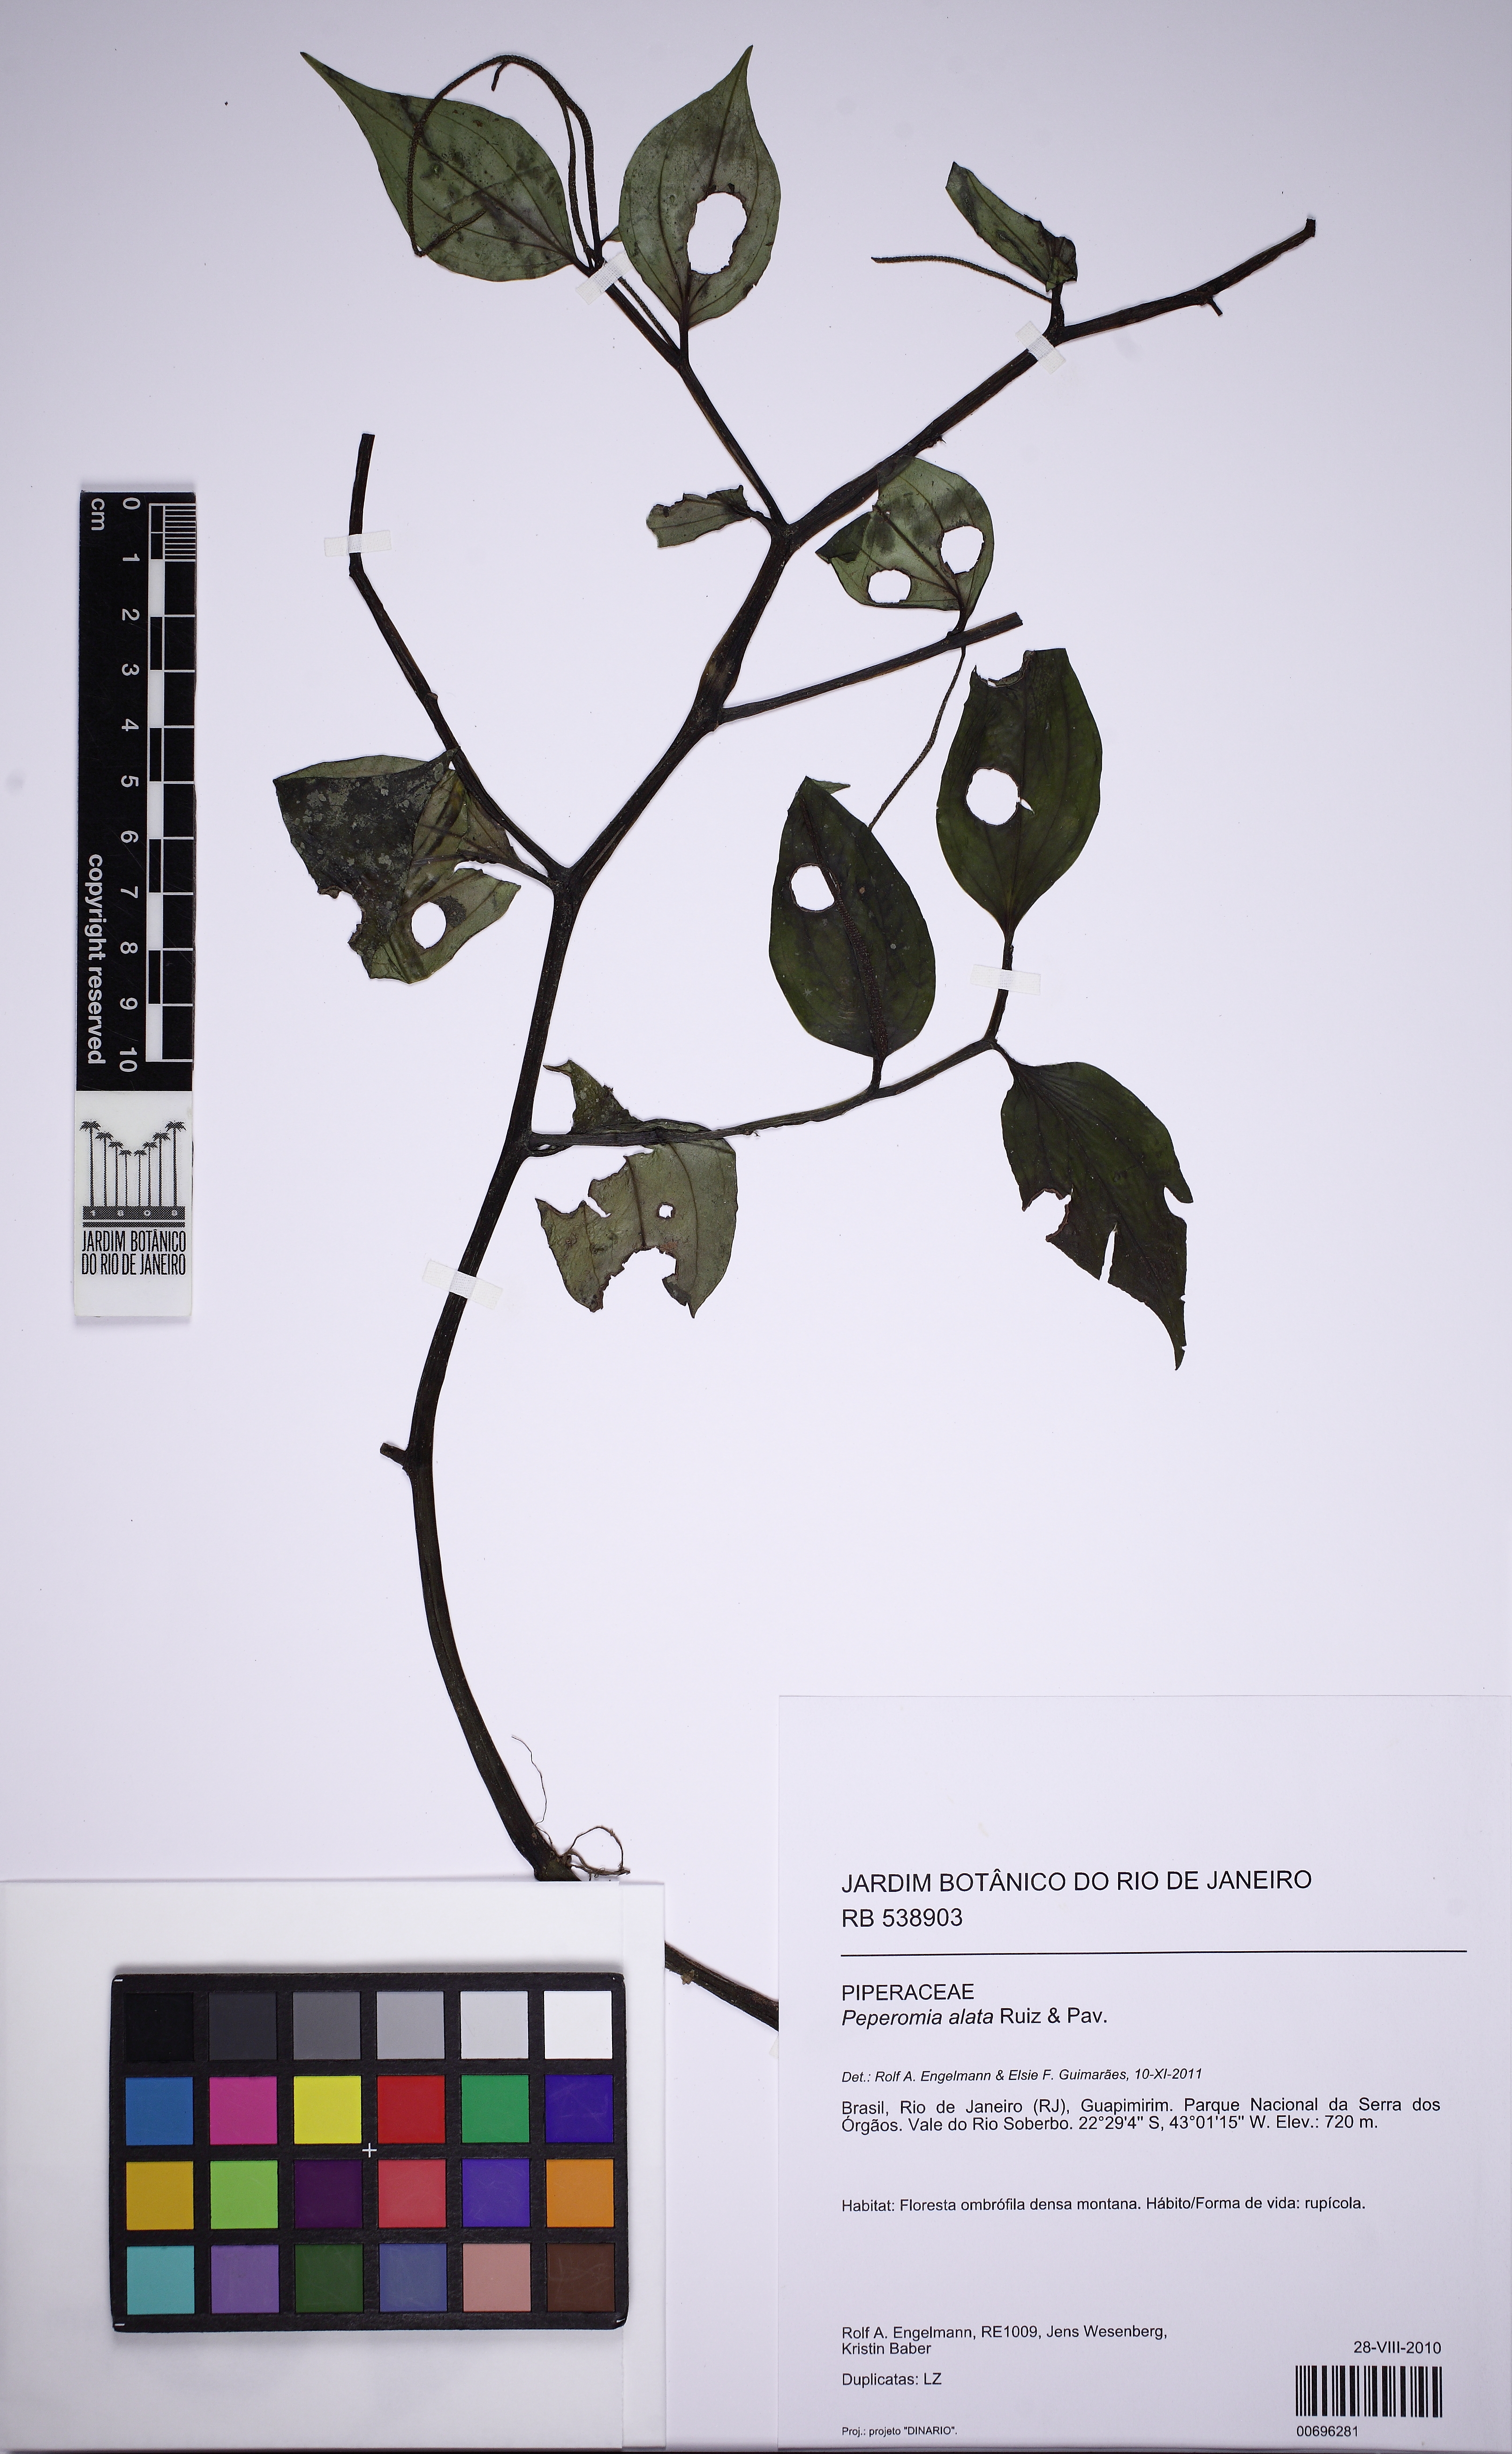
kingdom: Plantae
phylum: Tracheophyta
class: Magnoliopsida
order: Piperales
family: Piperaceae
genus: Peperomia
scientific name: Peperomia alata
